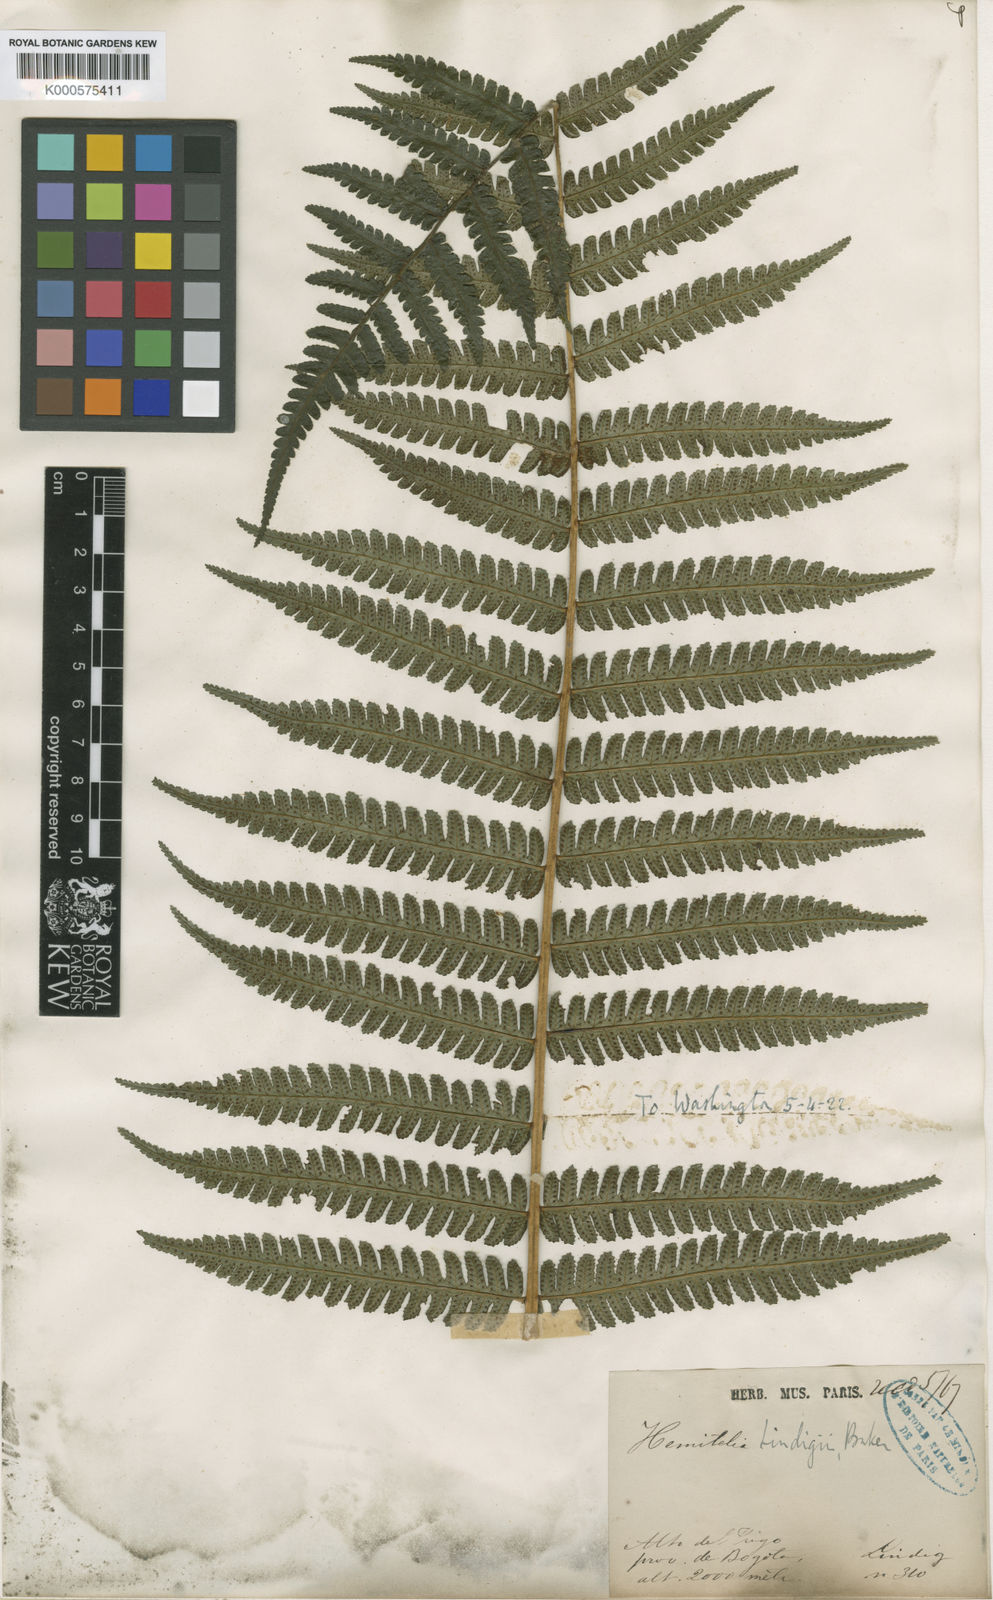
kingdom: Plantae
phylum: Tracheophyta
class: Polypodiopsida
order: Cyatheales
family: Cyatheaceae
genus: Cyathea
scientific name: Cyathea multiflora
